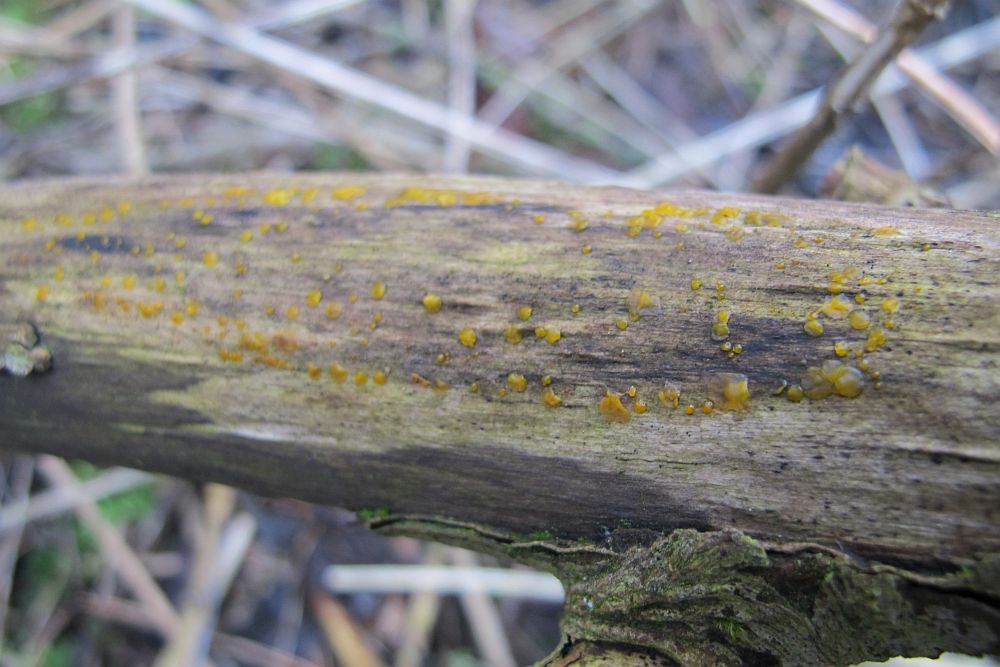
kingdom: Fungi
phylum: Basidiomycota
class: Dacrymycetes
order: Dacrymycetales
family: Dacrymycetaceae
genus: Dacrymyces
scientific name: Dacrymyces stillatus
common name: almindelig tåresvamp
